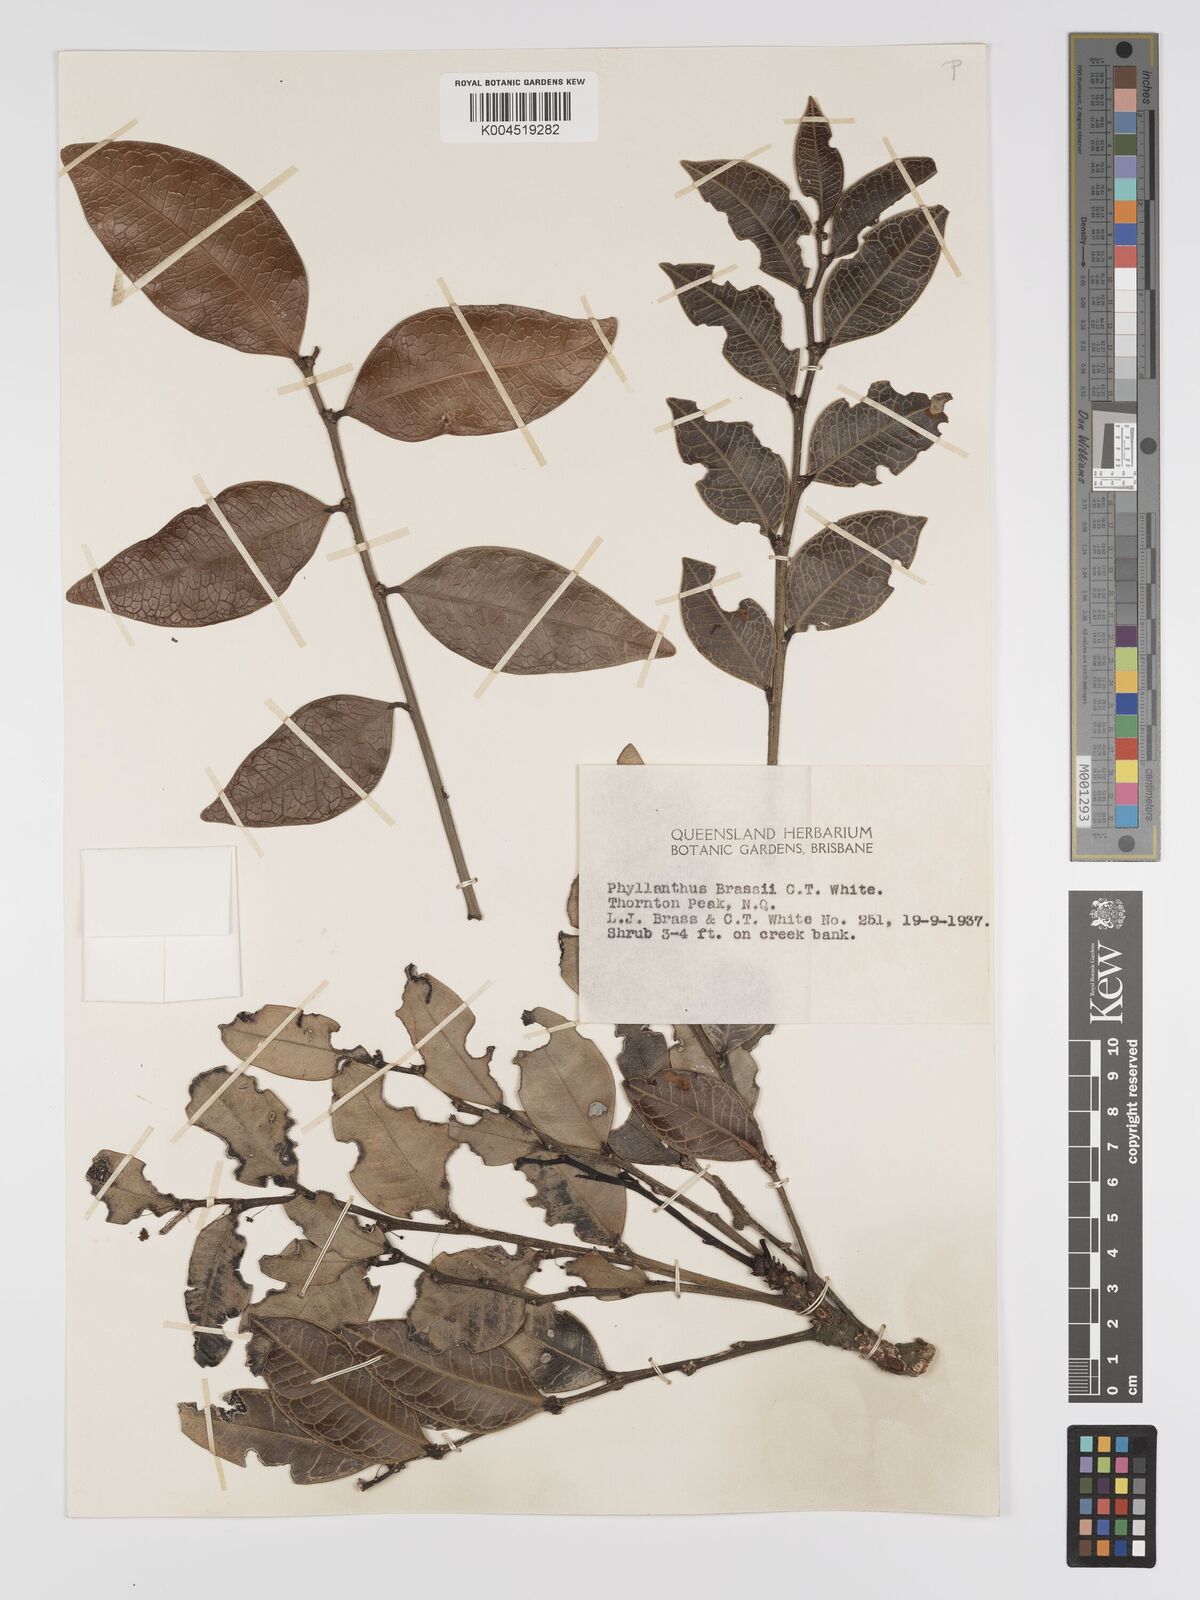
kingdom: Plantae
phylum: Tracheophyta
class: Magnoliopsida
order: Malpighiales
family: Phyllanthaceae
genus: Phyllanthus
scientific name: Phyllanthus brassii
